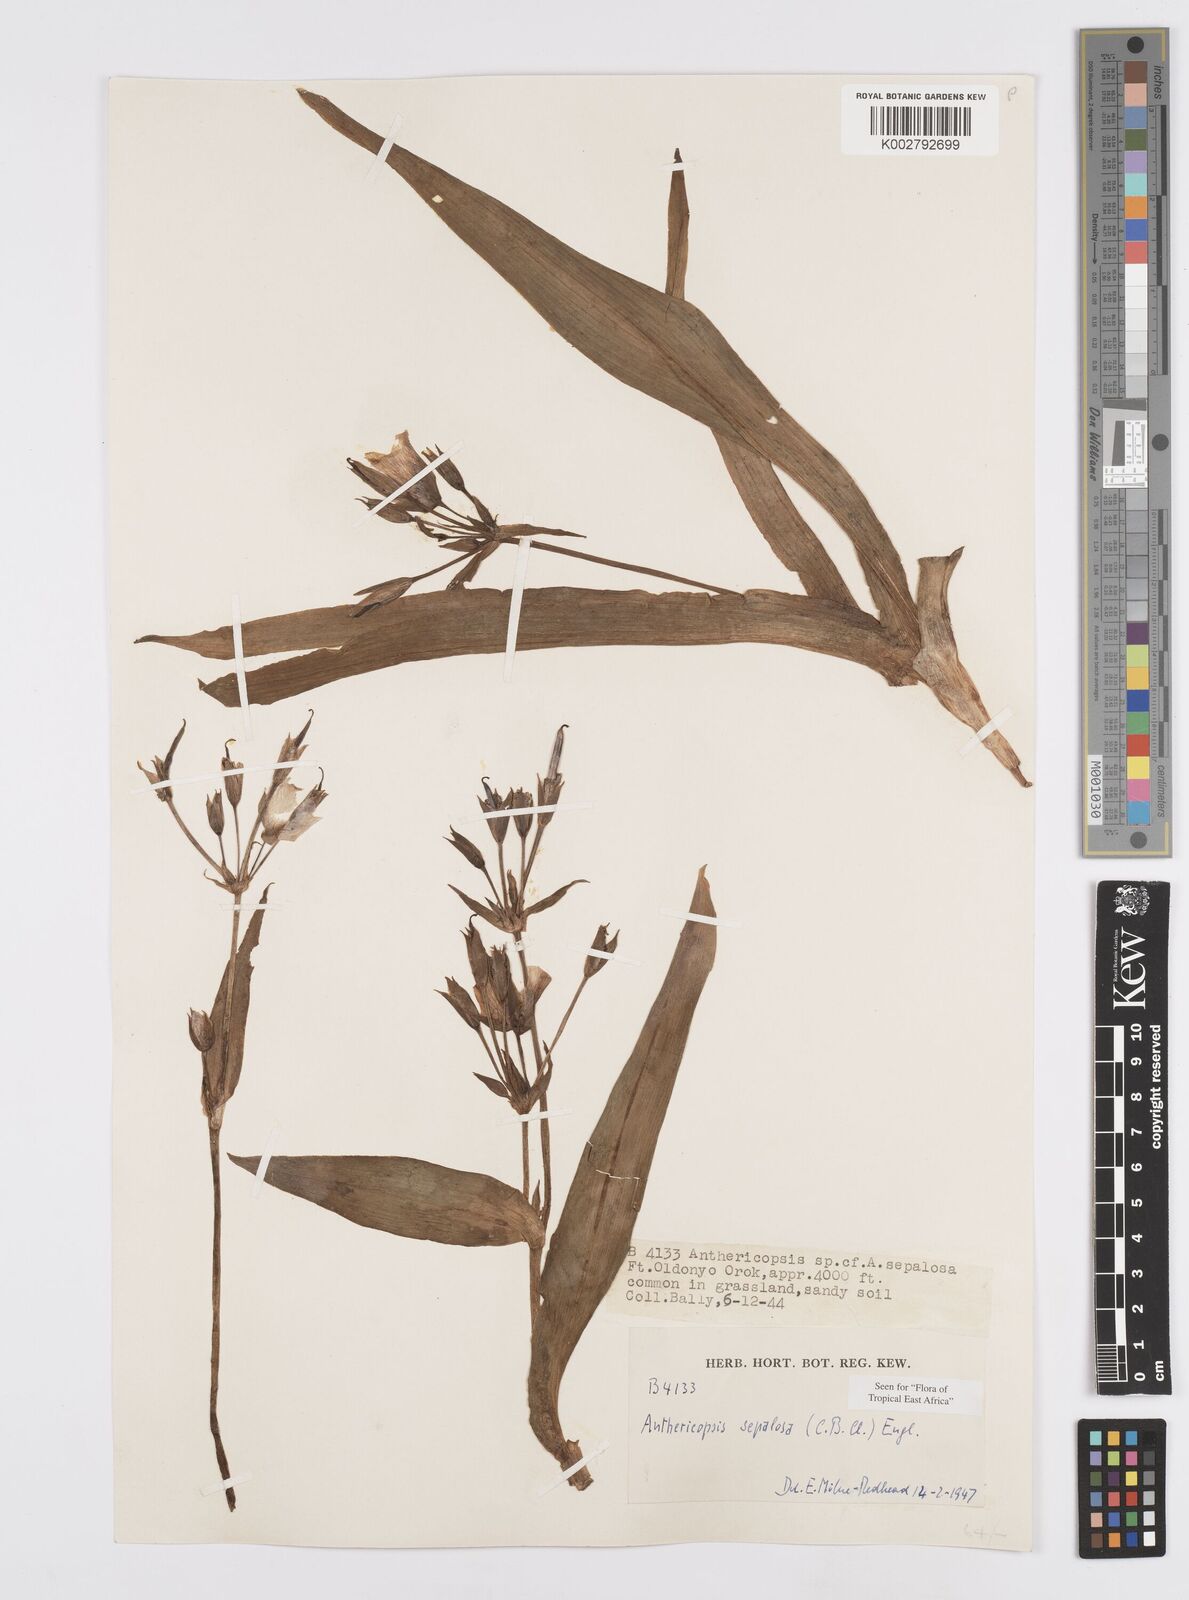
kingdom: Plantae
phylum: Tracheophyta
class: Liliopsida
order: Commelinales
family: Commelinaceae
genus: Anthericopsis
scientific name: Anthericopsis sepalosa
